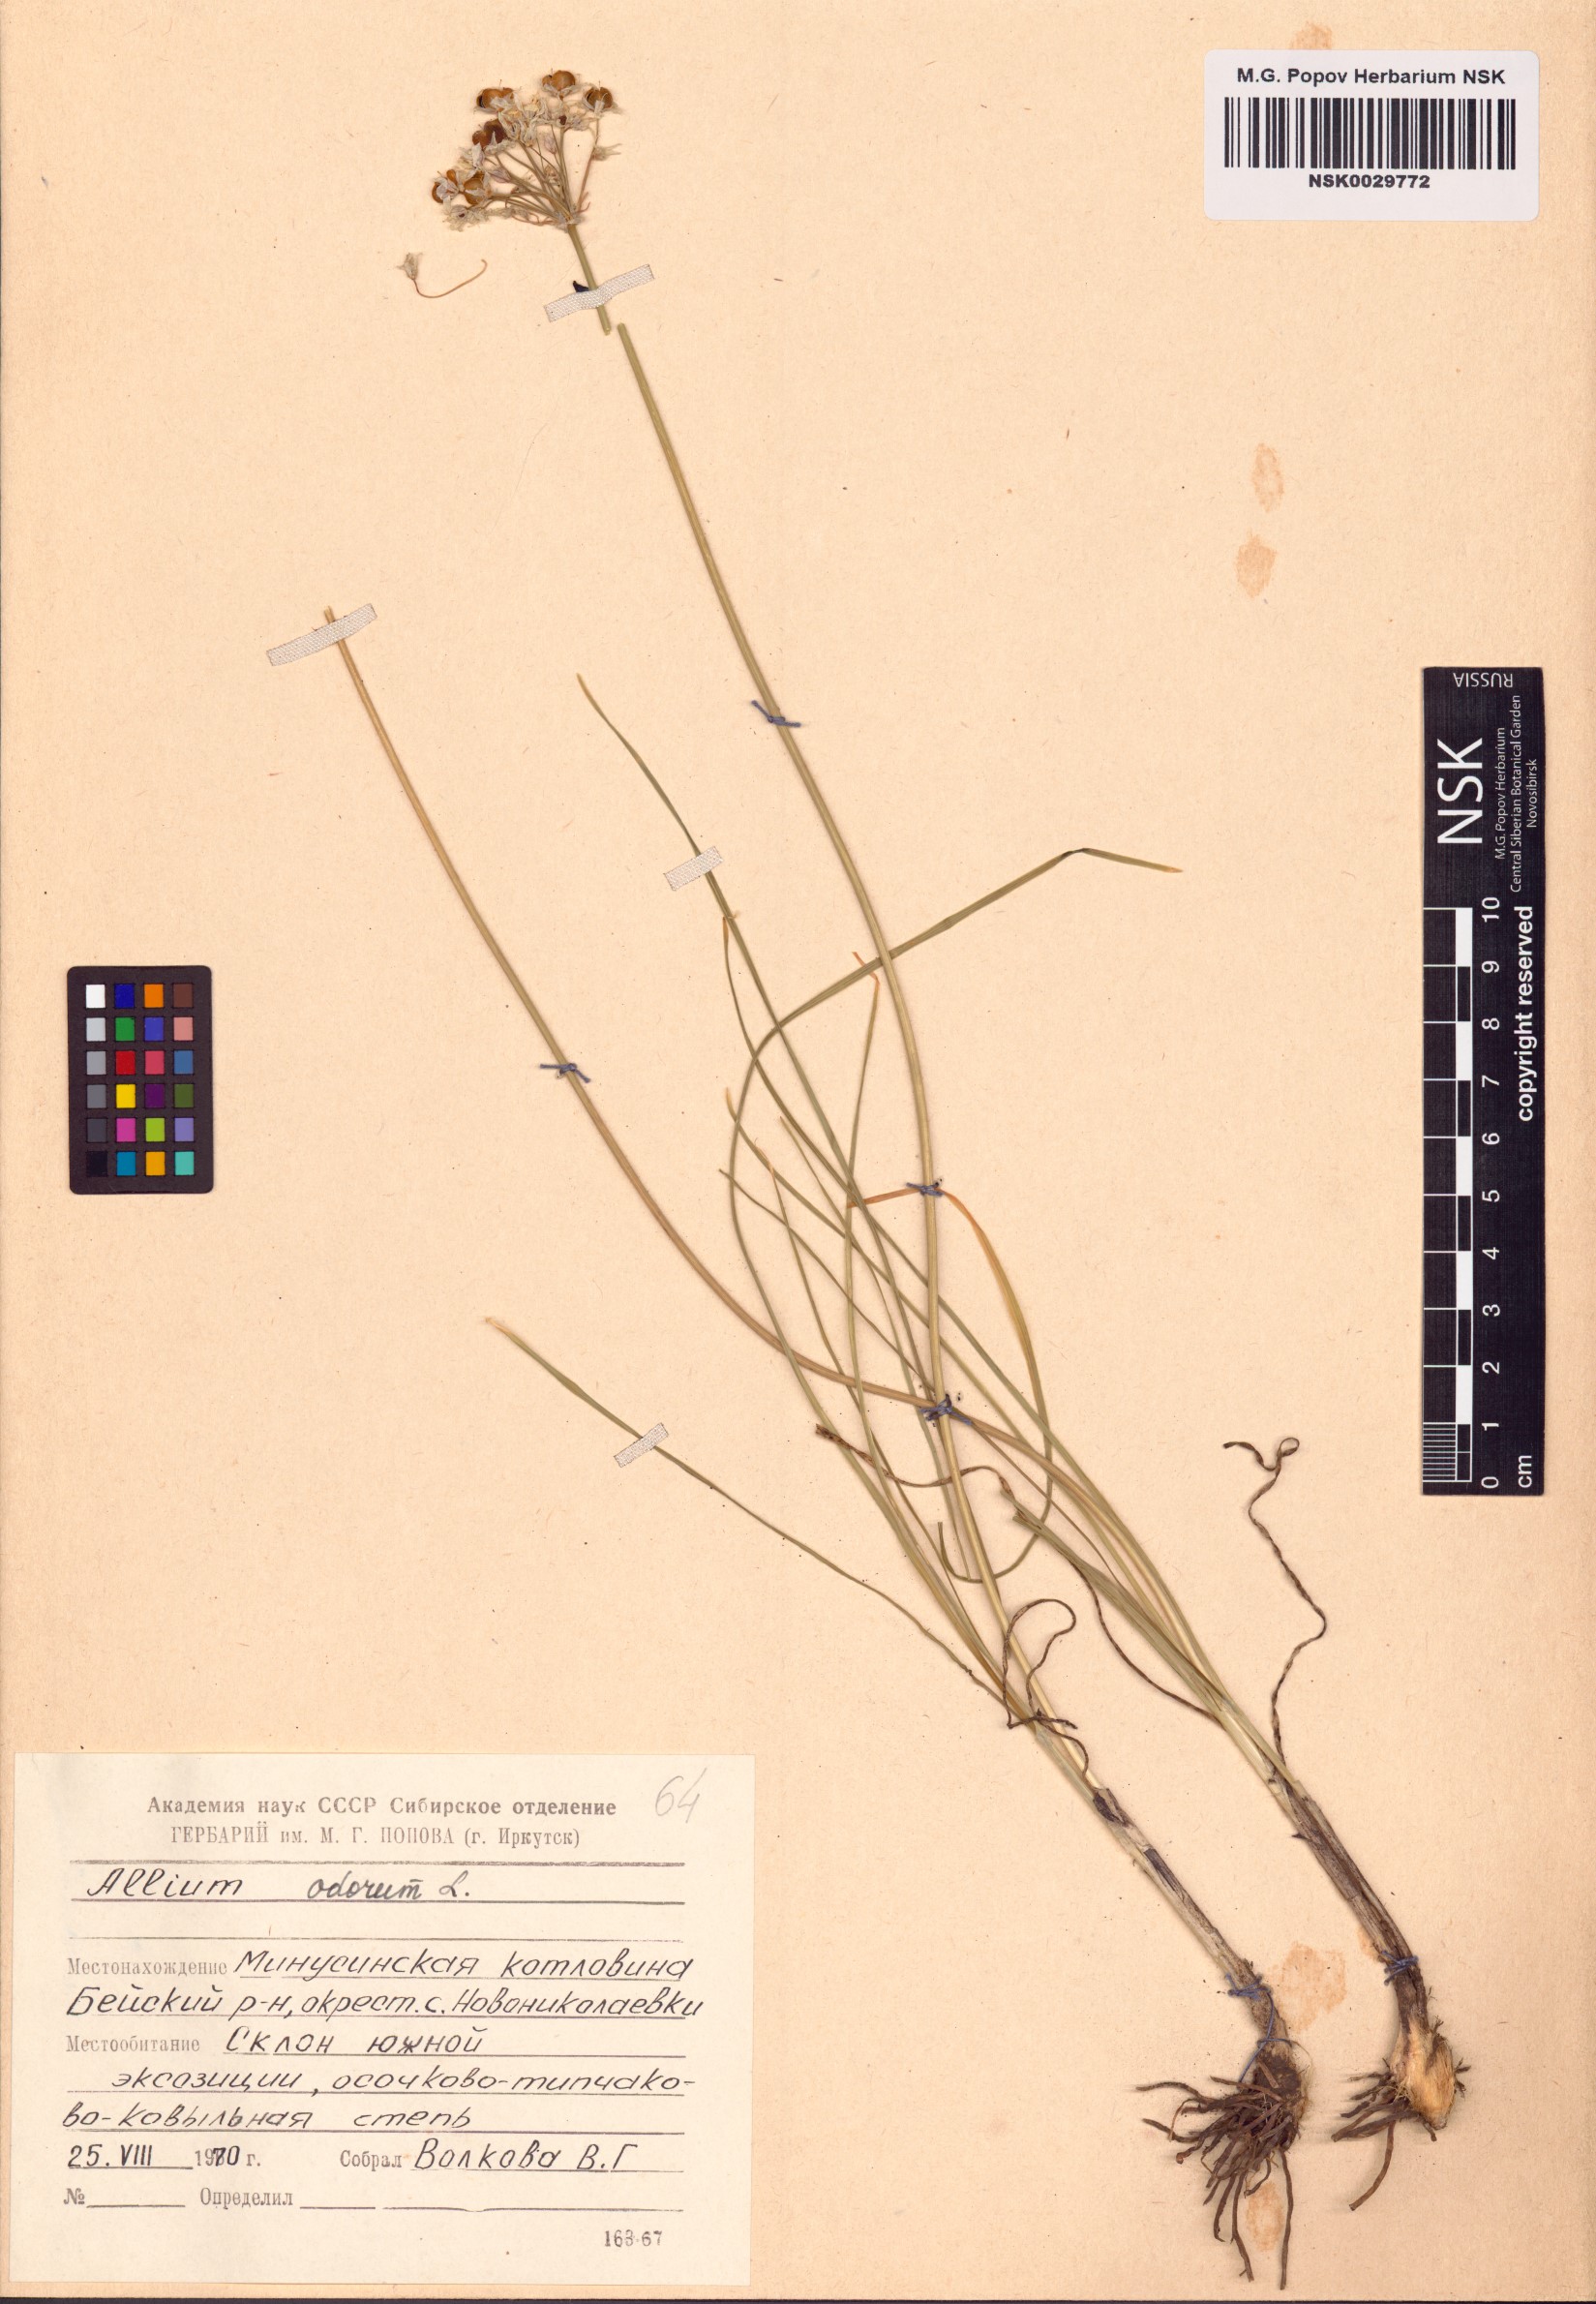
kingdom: Plantae
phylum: Tracheophyta
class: Liliopsida
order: Asparagales
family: Amaryllidaceae
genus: Allium
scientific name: Allium ramosum
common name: Fragrant garlic
